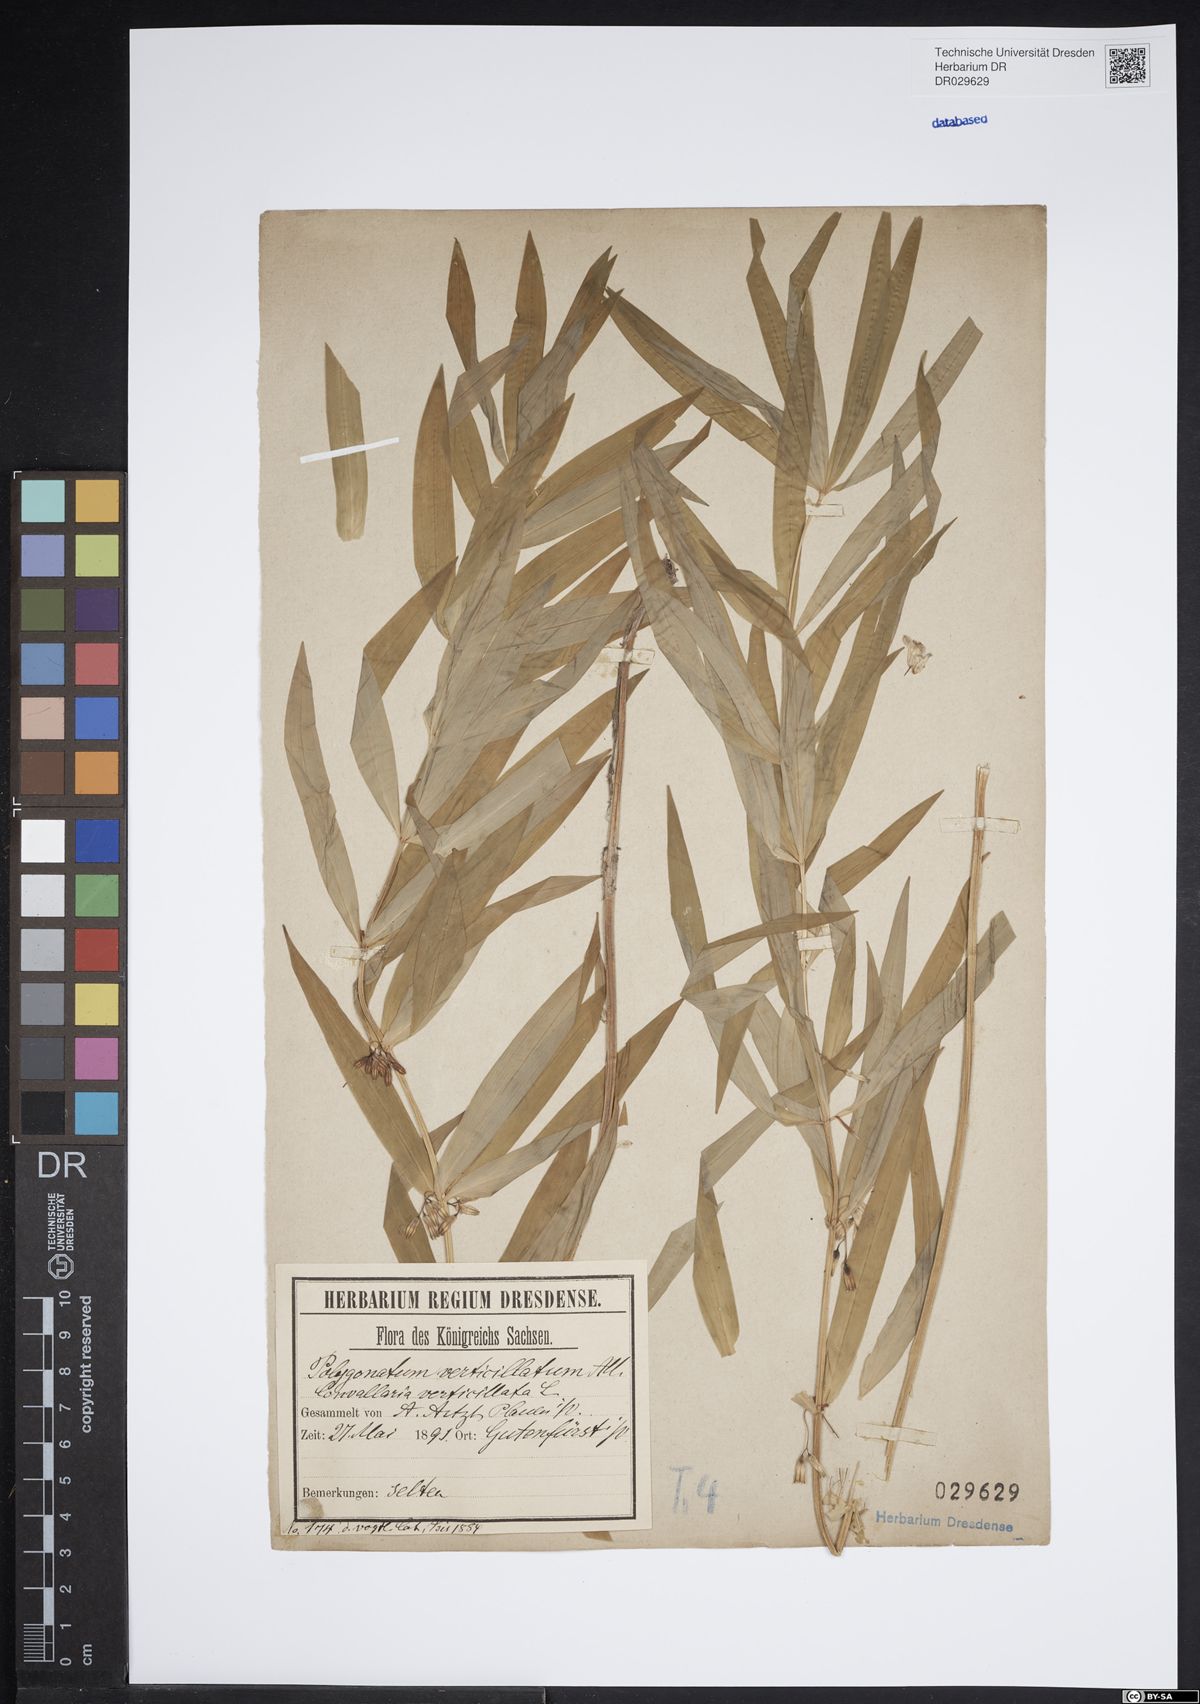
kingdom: Plantae
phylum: Tracheophyta
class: Liliopsida
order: Asparagales
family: Asparagaceae
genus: Polygonatum
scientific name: Polygonatum verticillatum
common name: Whorled solomon's-seal
